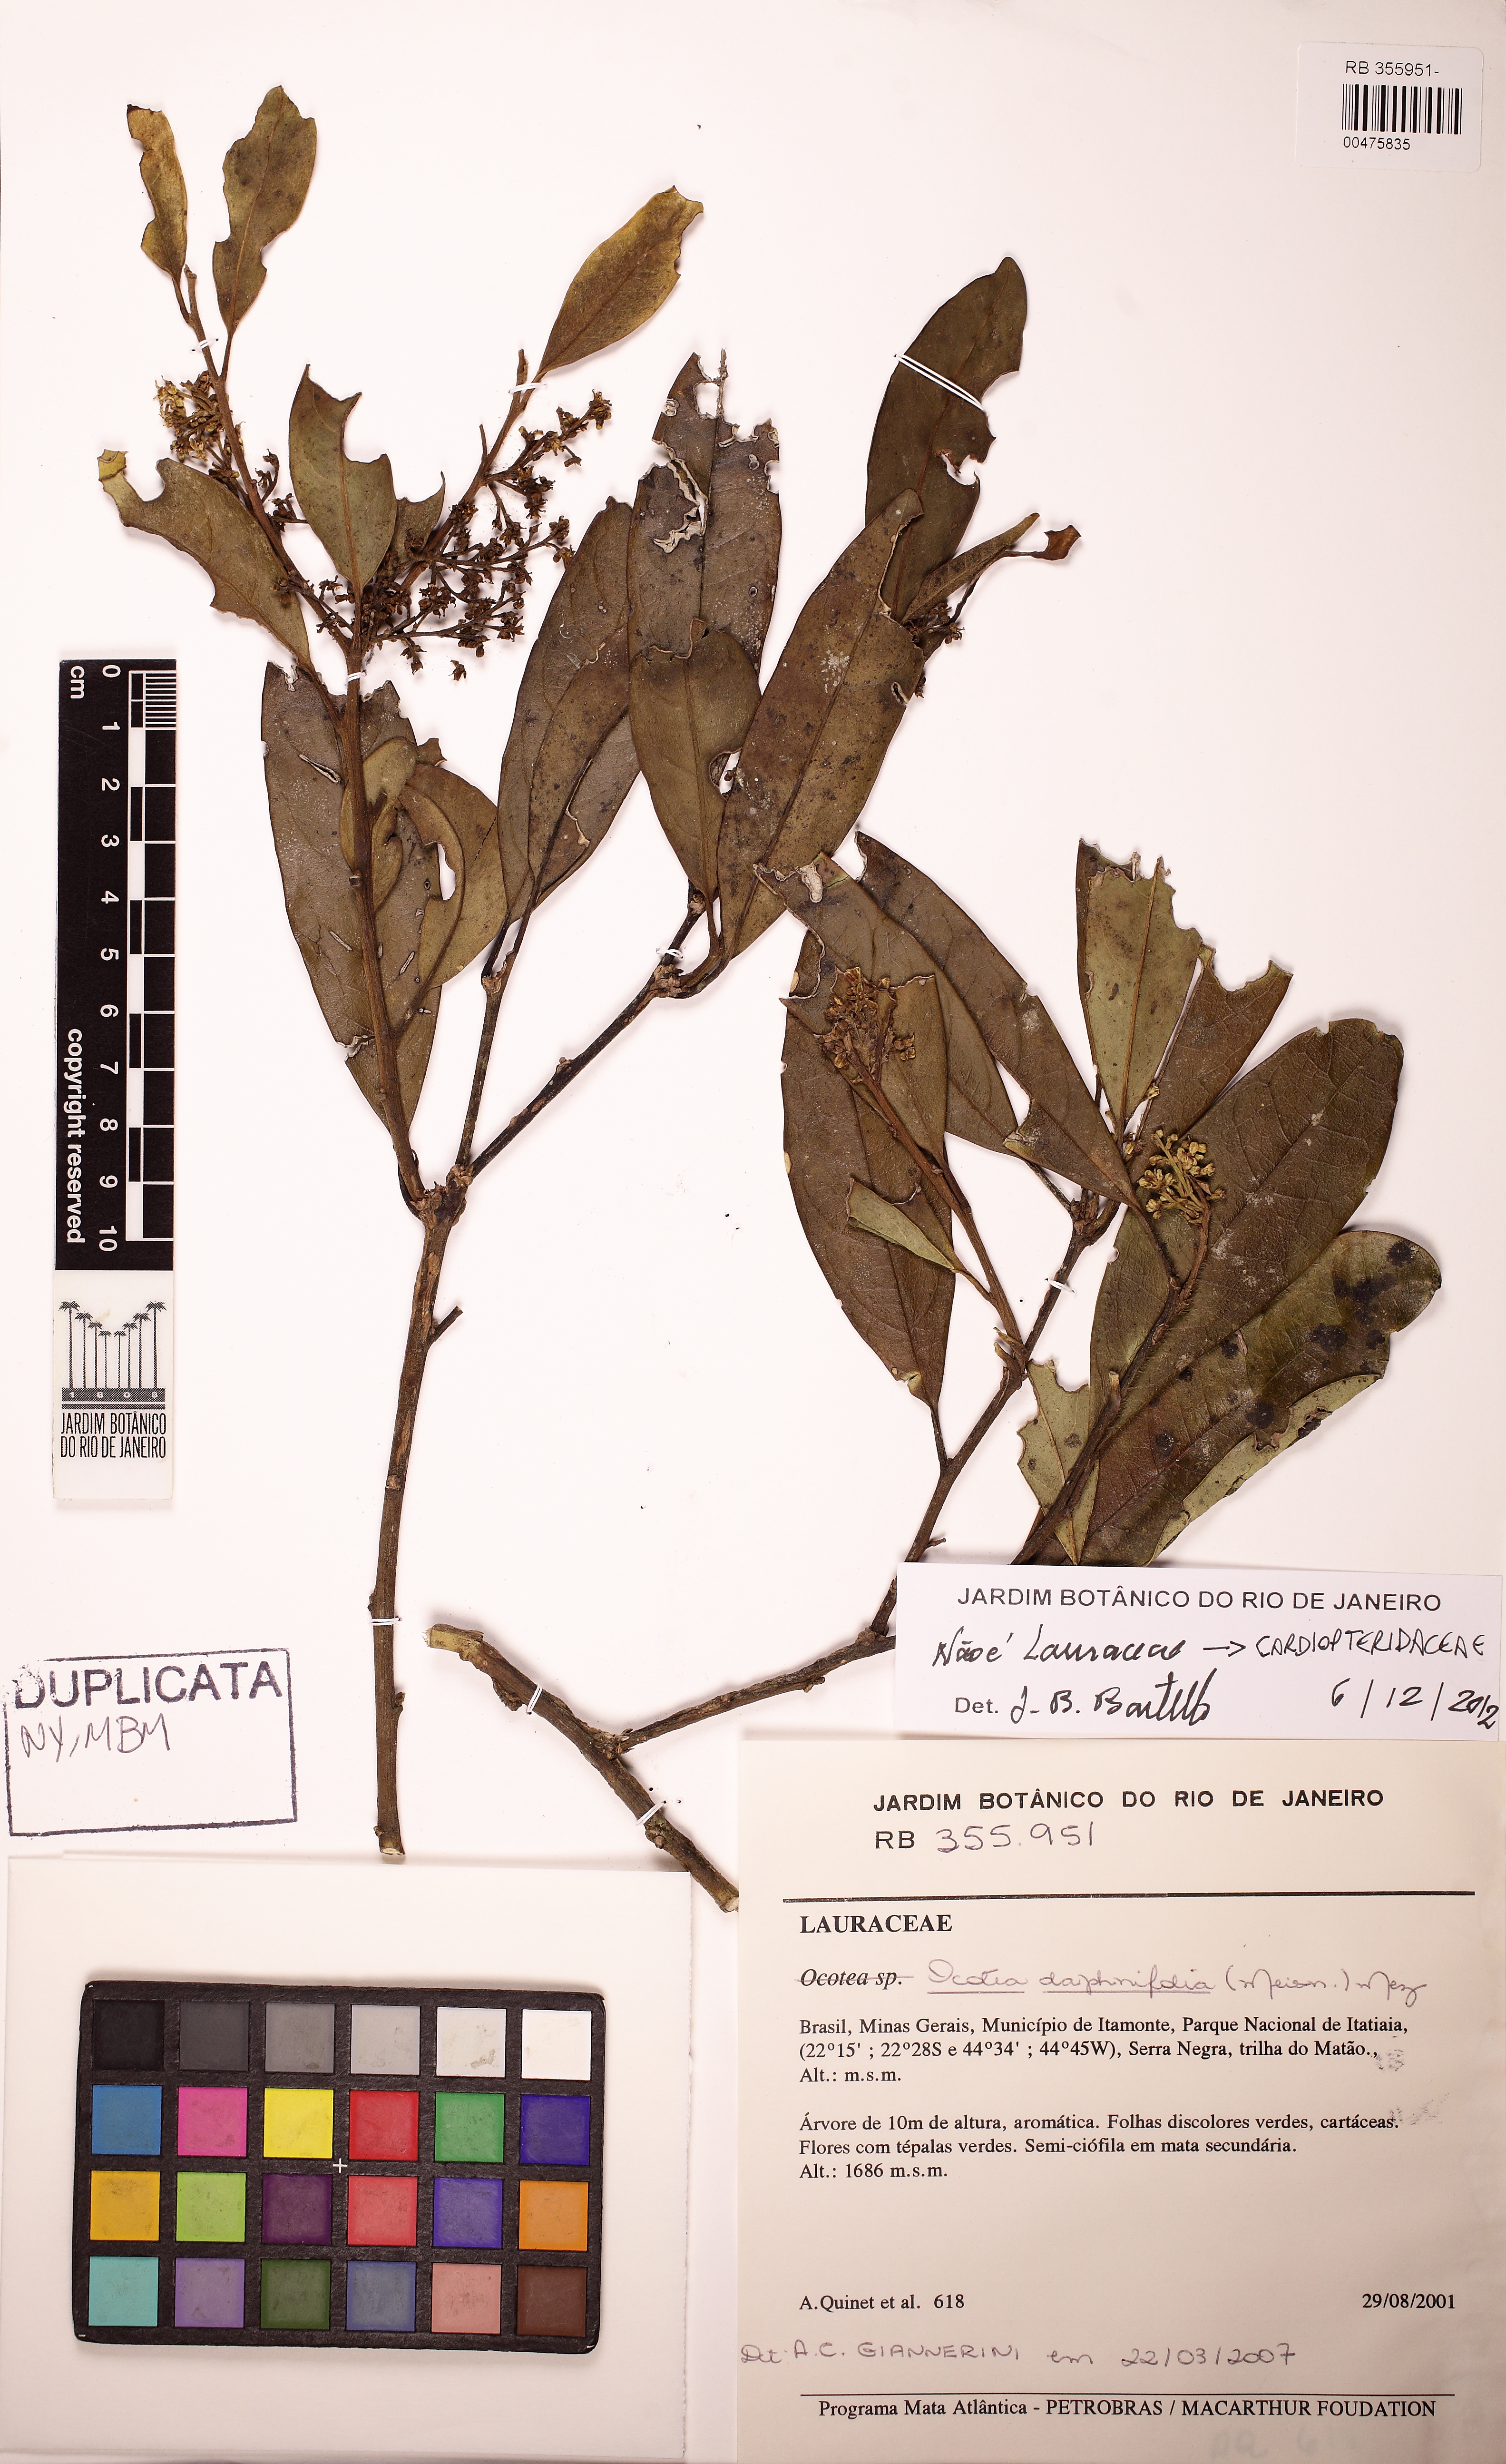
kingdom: Plantae
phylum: Tracheophyta
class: Magnoliopsida
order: Cardiopteridales
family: Cardiopteridaceae
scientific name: Cardiopteridaceae
